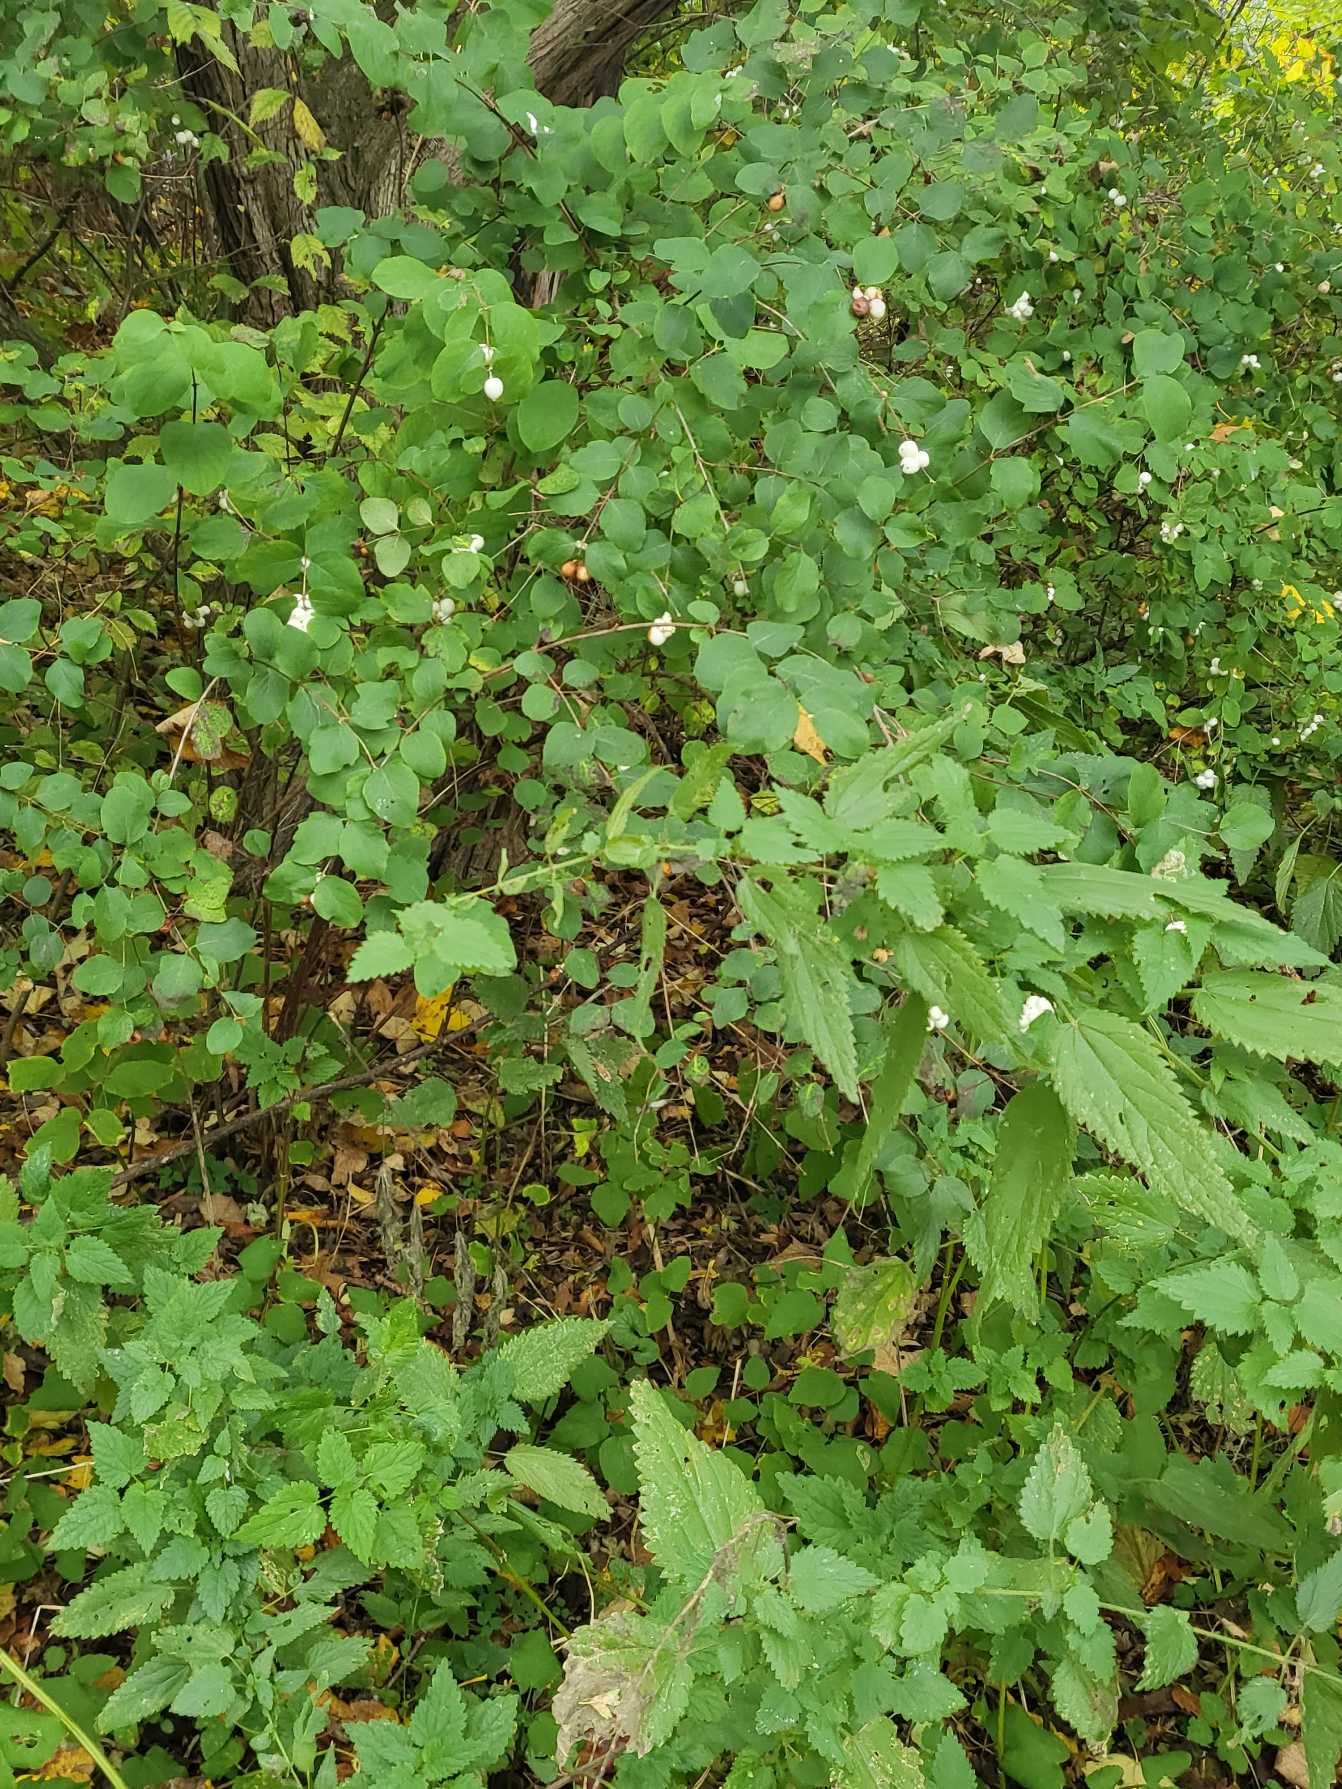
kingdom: Plantae
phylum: Tracheophyta
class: Magnoliopsida
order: Dipsacales
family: Caprifoliaceae
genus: Symphoricarpos
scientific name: Symphoricarpos albus
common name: Almindelig snebær
